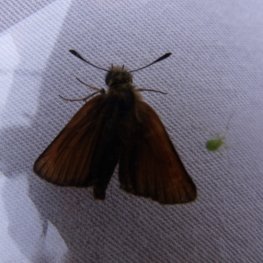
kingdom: Animalia
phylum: Arthropoda
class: Insecta
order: Lepidoptera
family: Hesperiidae
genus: Thymelicus
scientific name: Thymelicus lineola
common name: European Skipper
